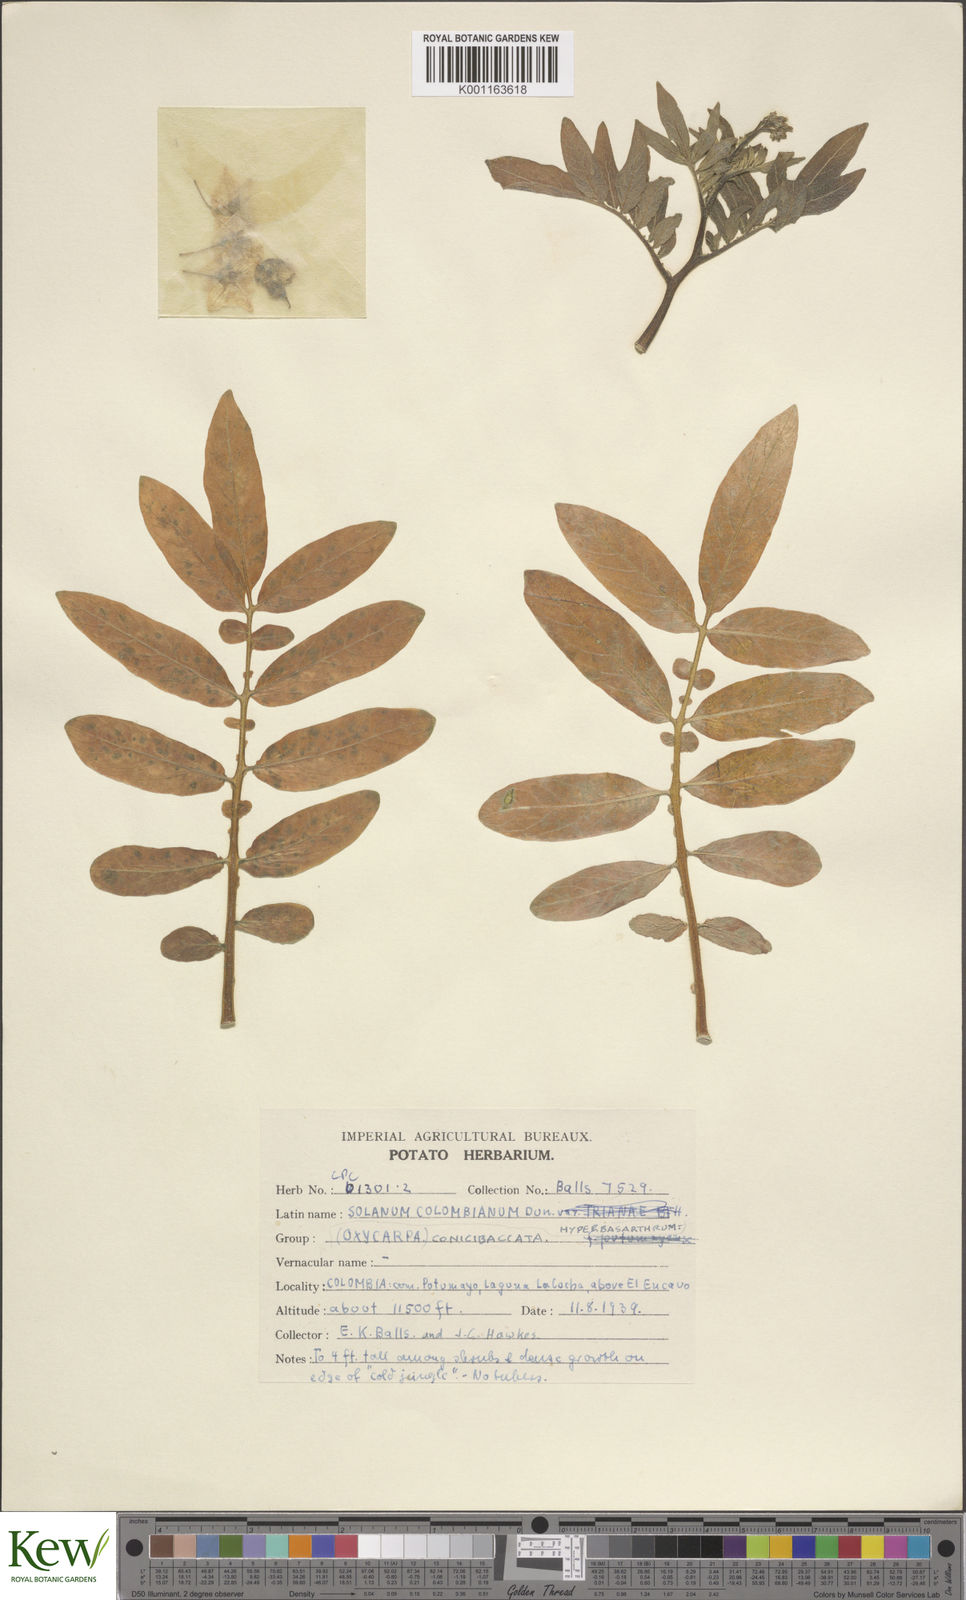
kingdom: Plantae
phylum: Tracheophyta
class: Magnoliopsida
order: Solanales
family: Solanaceae
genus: Solanum
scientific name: Solanum colombianum
